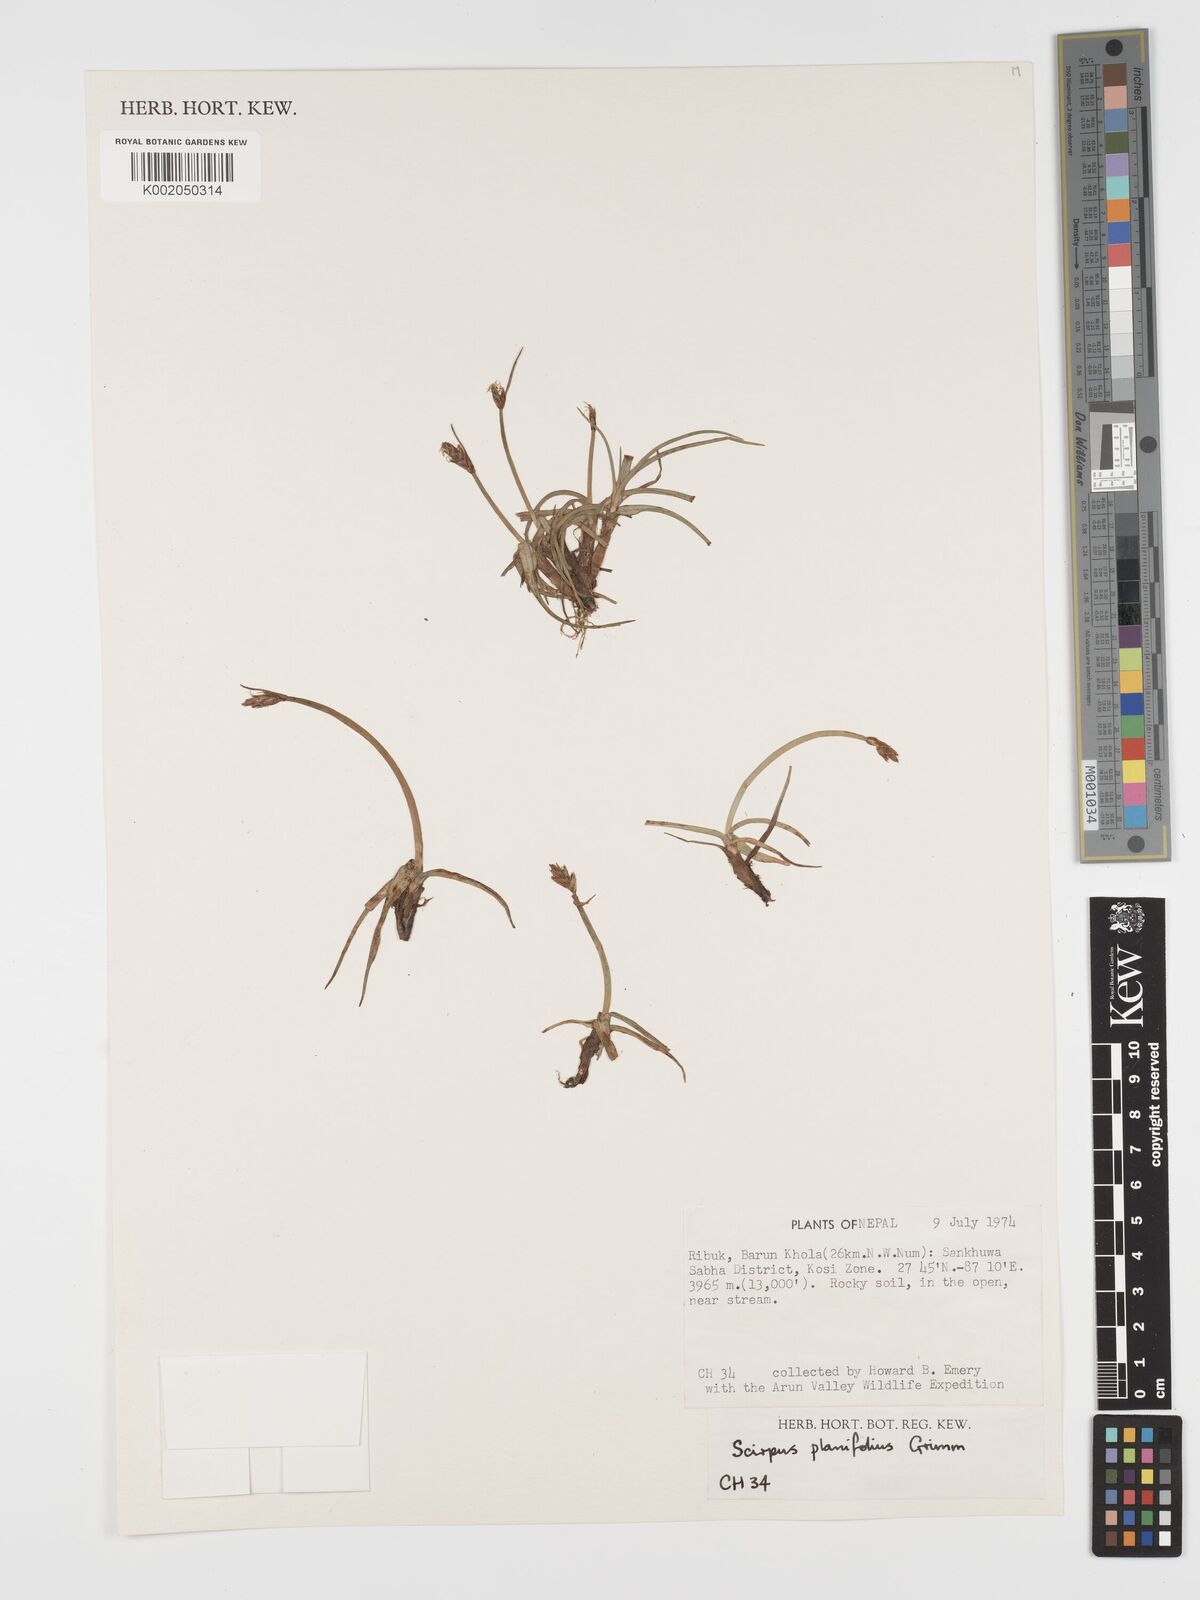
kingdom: Plantae
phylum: Tracheophyta
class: Liliopsida
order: Poales
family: Cyperaceae
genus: Blysmus
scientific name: Blysmus compressus
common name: Flat-sedge
